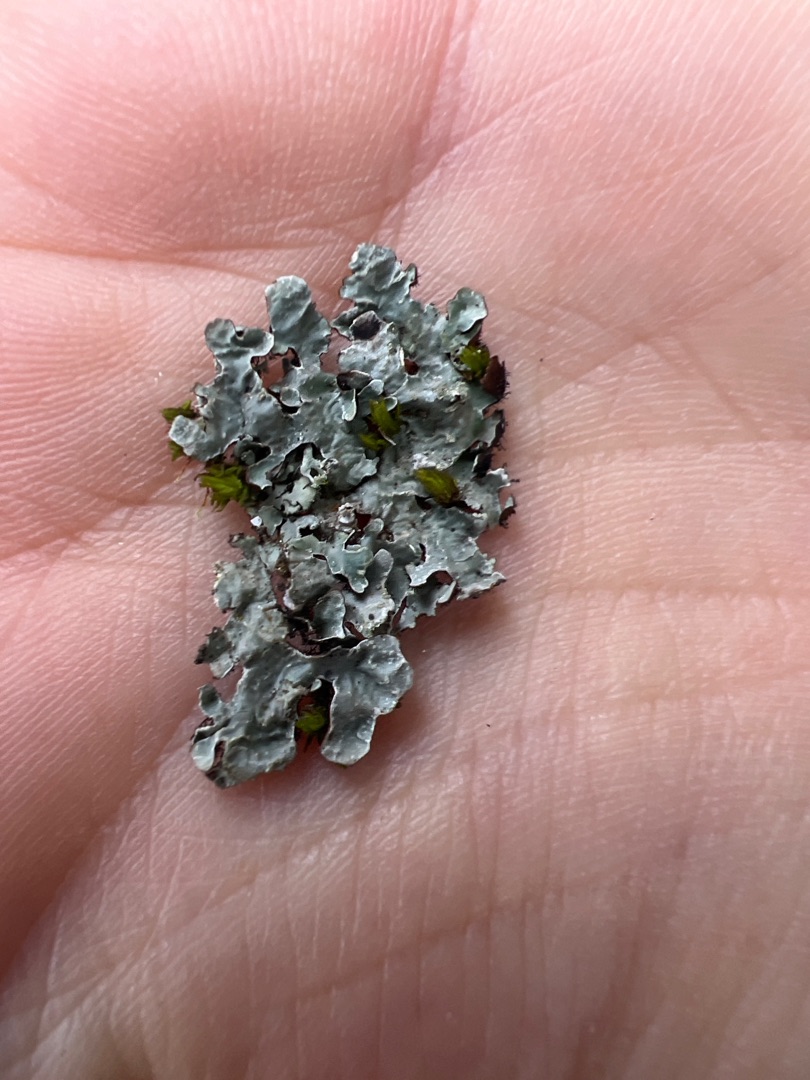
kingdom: Fungi
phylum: Ascomycota
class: Lecanoromycetes
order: Lecanorales
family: Parmeliaceae
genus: Parmelia
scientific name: Parmelia sulcata
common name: Rynket skållav
